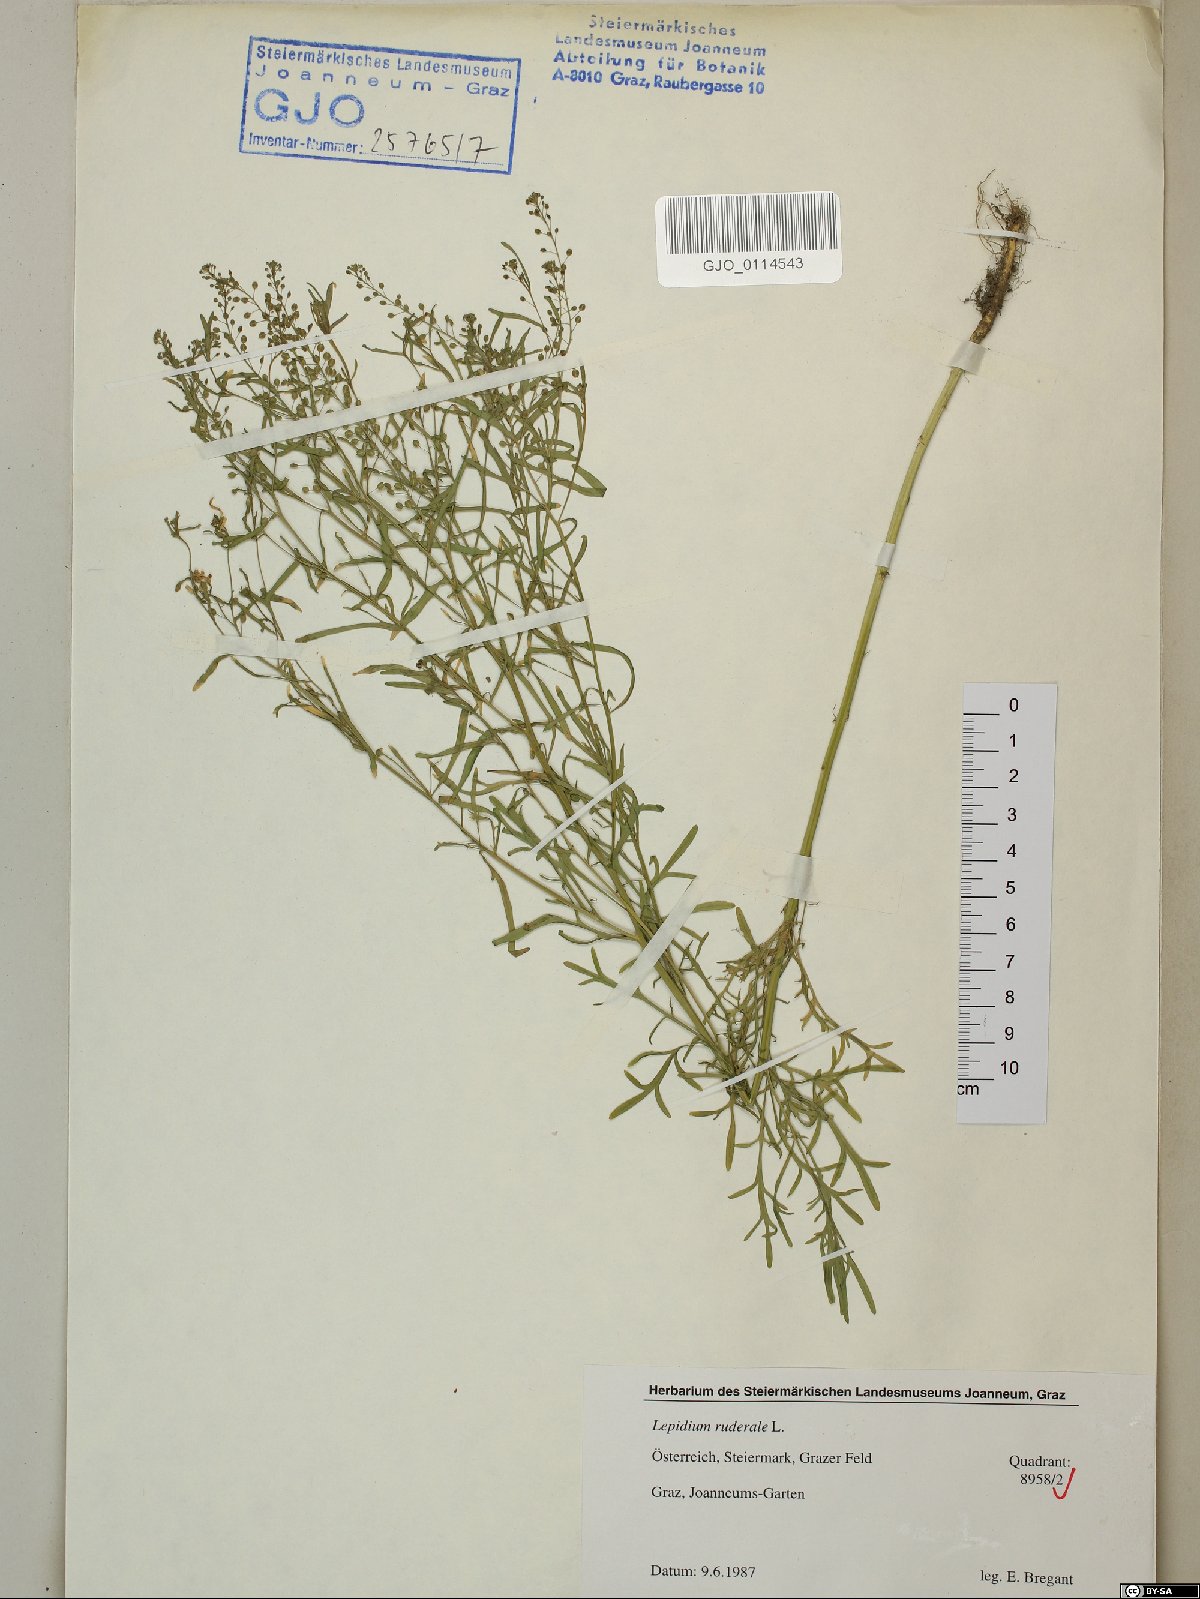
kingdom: Plantae
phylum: Tracheophyta
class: Magnoliopsida
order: Brassicales
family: Brassicaceae
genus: Lepidium
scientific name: Lepidium ruderale
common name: Narrow-leaved pepperwort
